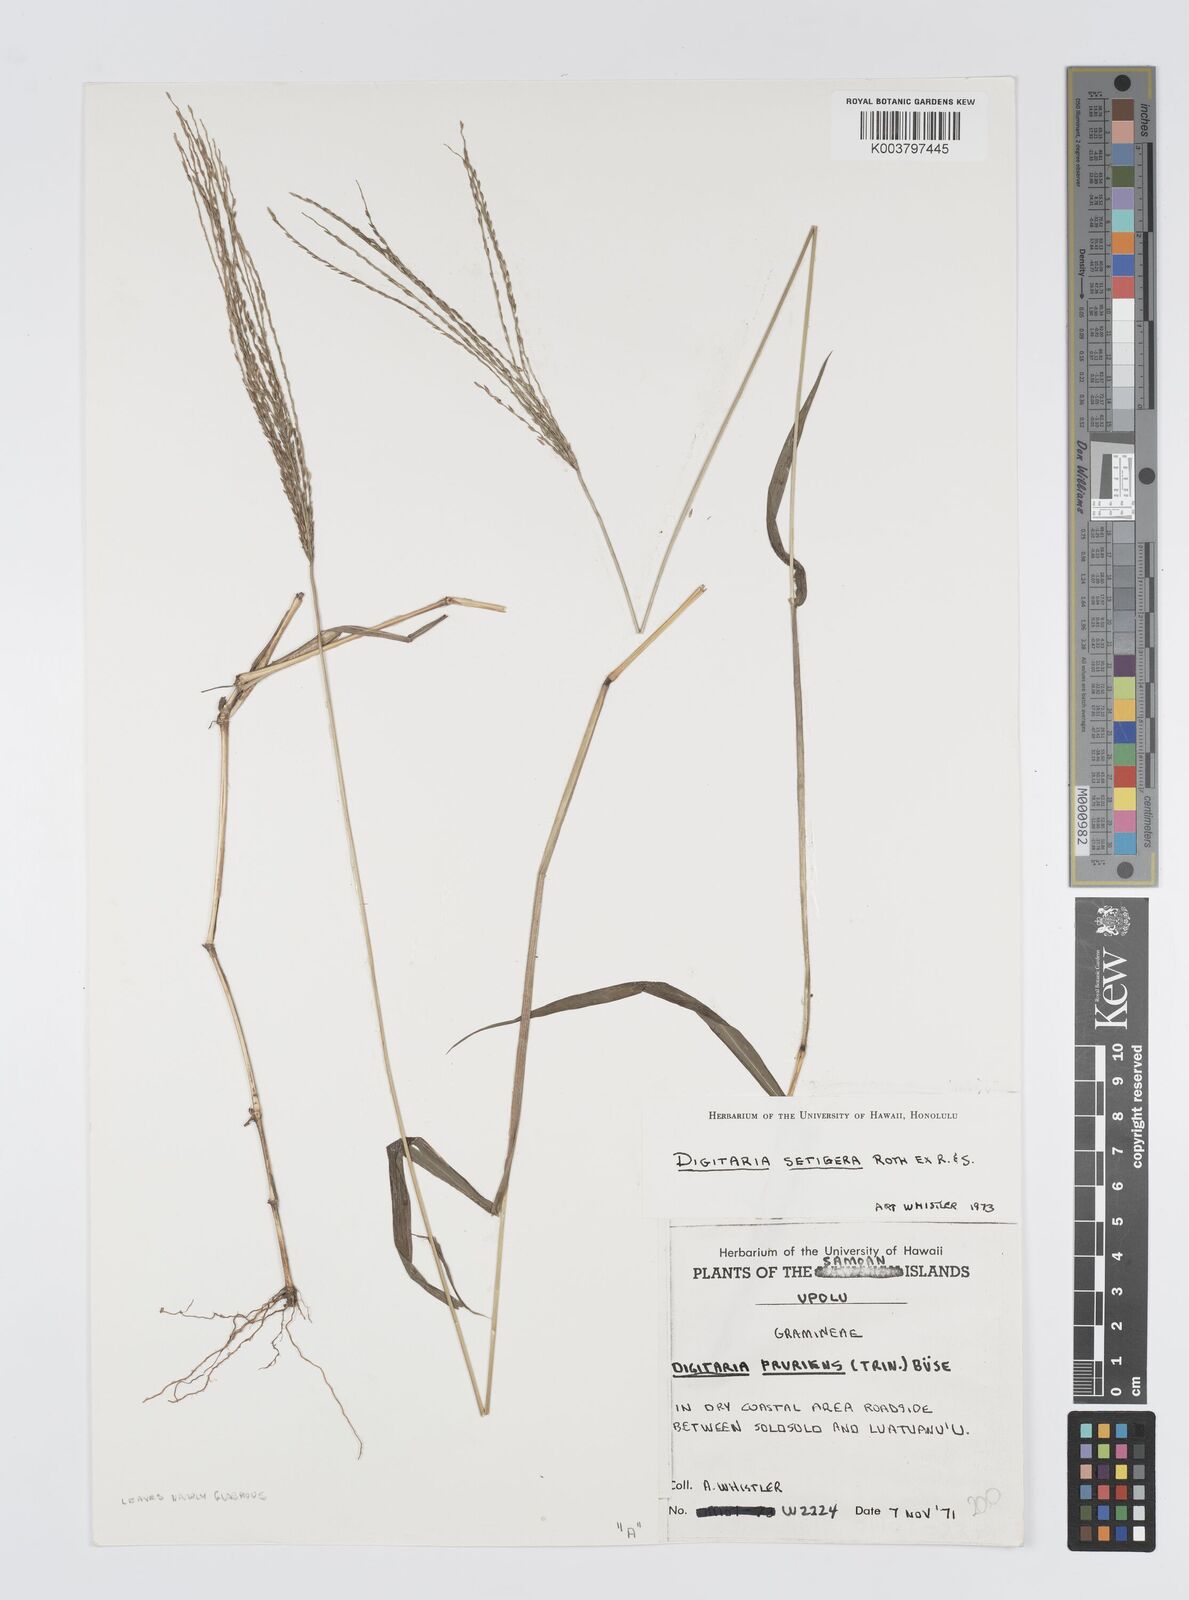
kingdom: Plantae
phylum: Tracheophyta
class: Liliopsida
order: Poales
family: Poaceae
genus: Digitaria
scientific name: Digitaria setigera
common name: East indian crabgrass
